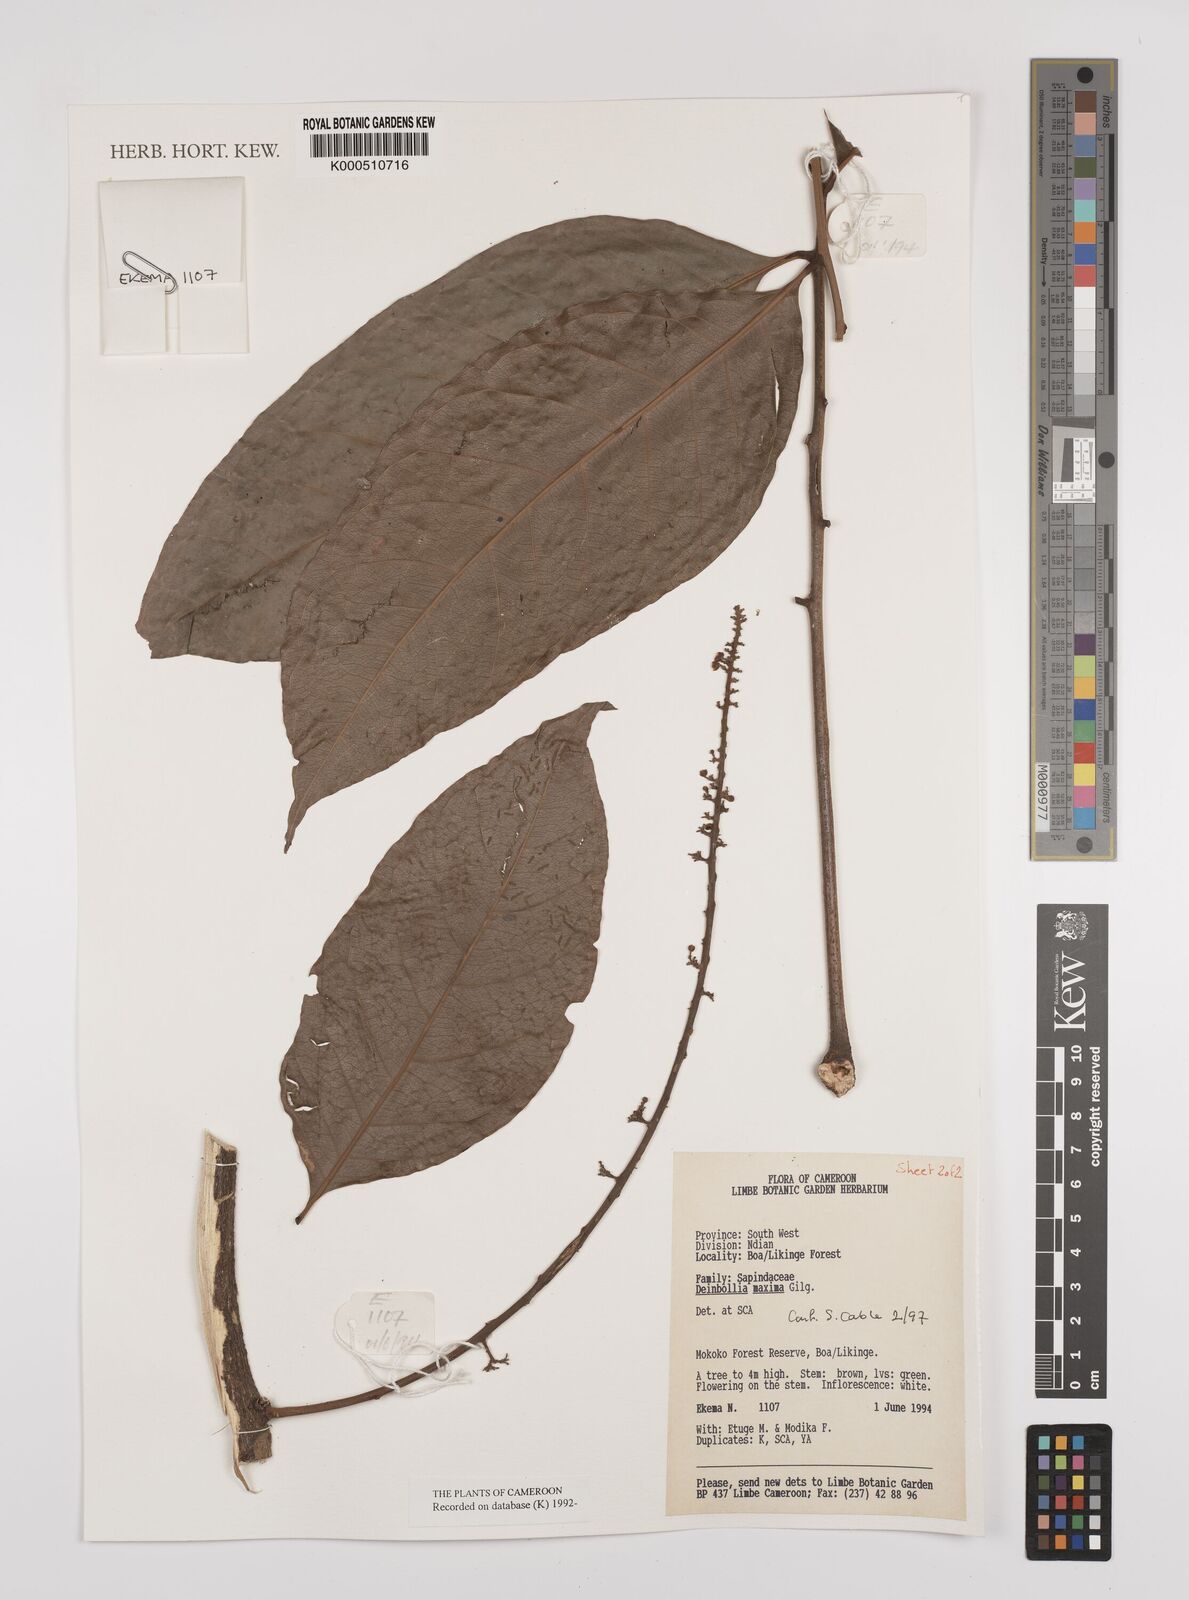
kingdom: Plantae
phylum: Tracheophyta
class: Magnoliopsida
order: Sapindales
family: Sapindaceae
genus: Deinbollia
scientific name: Deinbollia maxima
